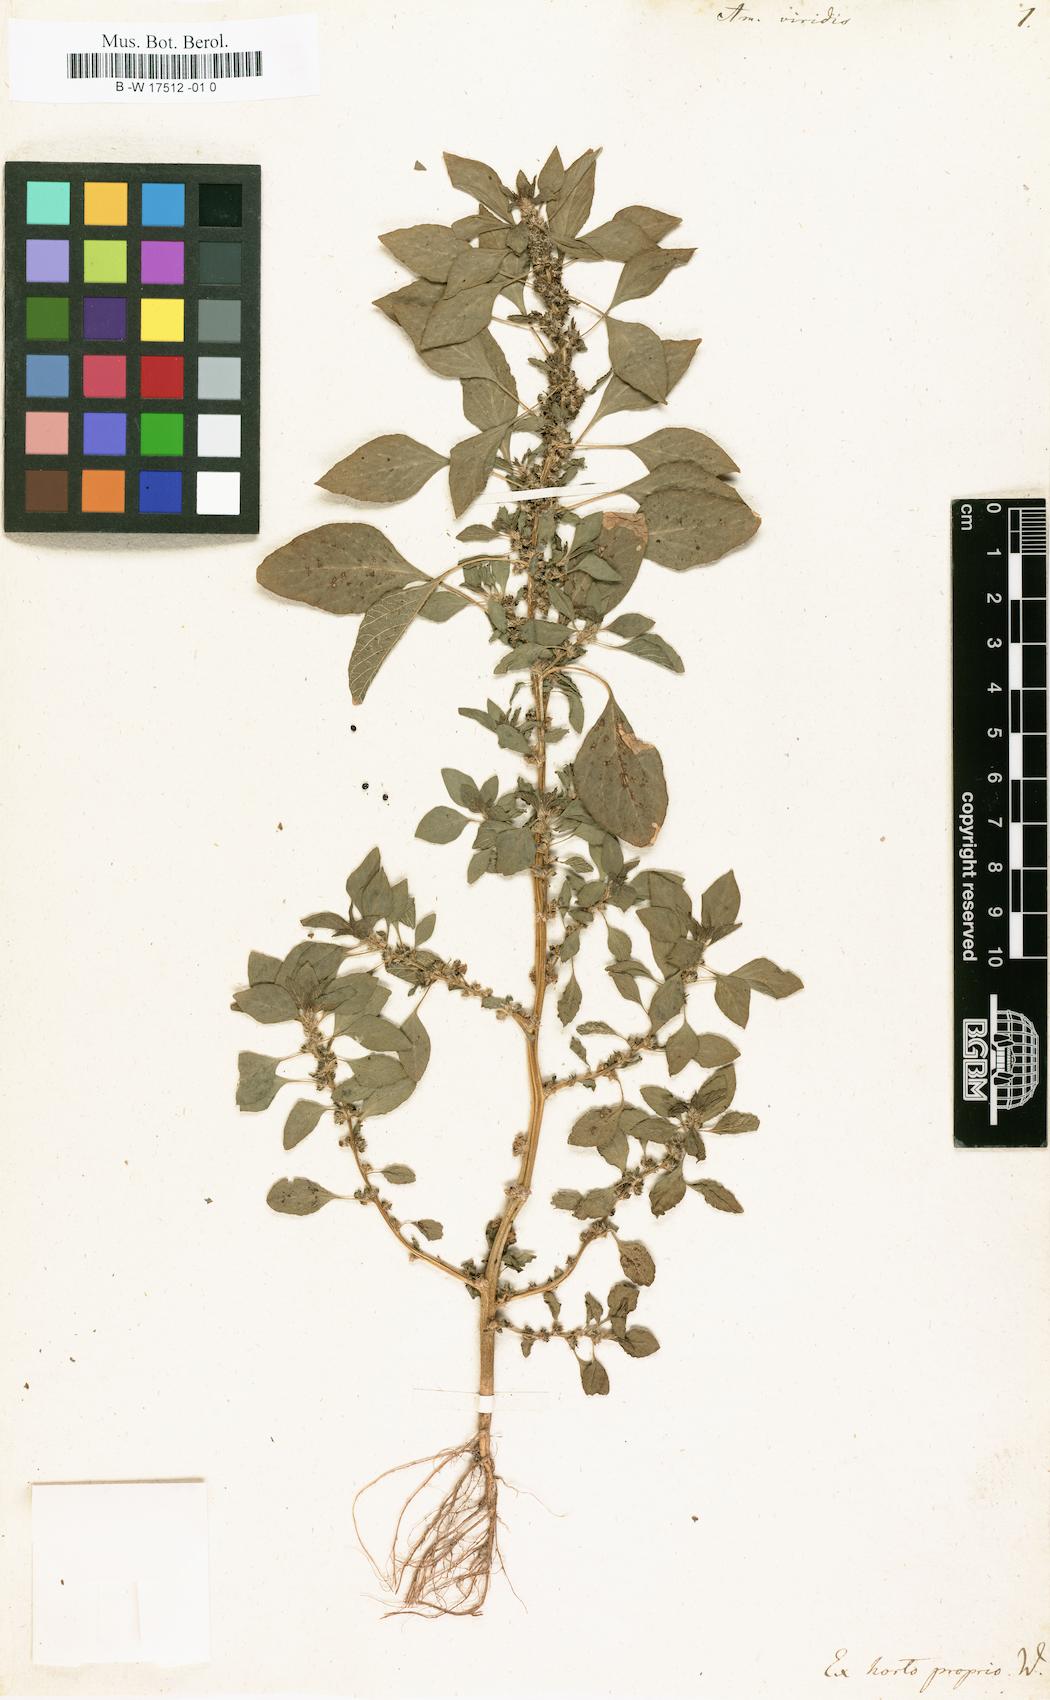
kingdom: Plantae
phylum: Tracheophyta
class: Magnoliopsida
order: Caryophyllales
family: Amaranthaceae
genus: Amaranthus
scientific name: Amaranthus viridis
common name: Slender amaranth
